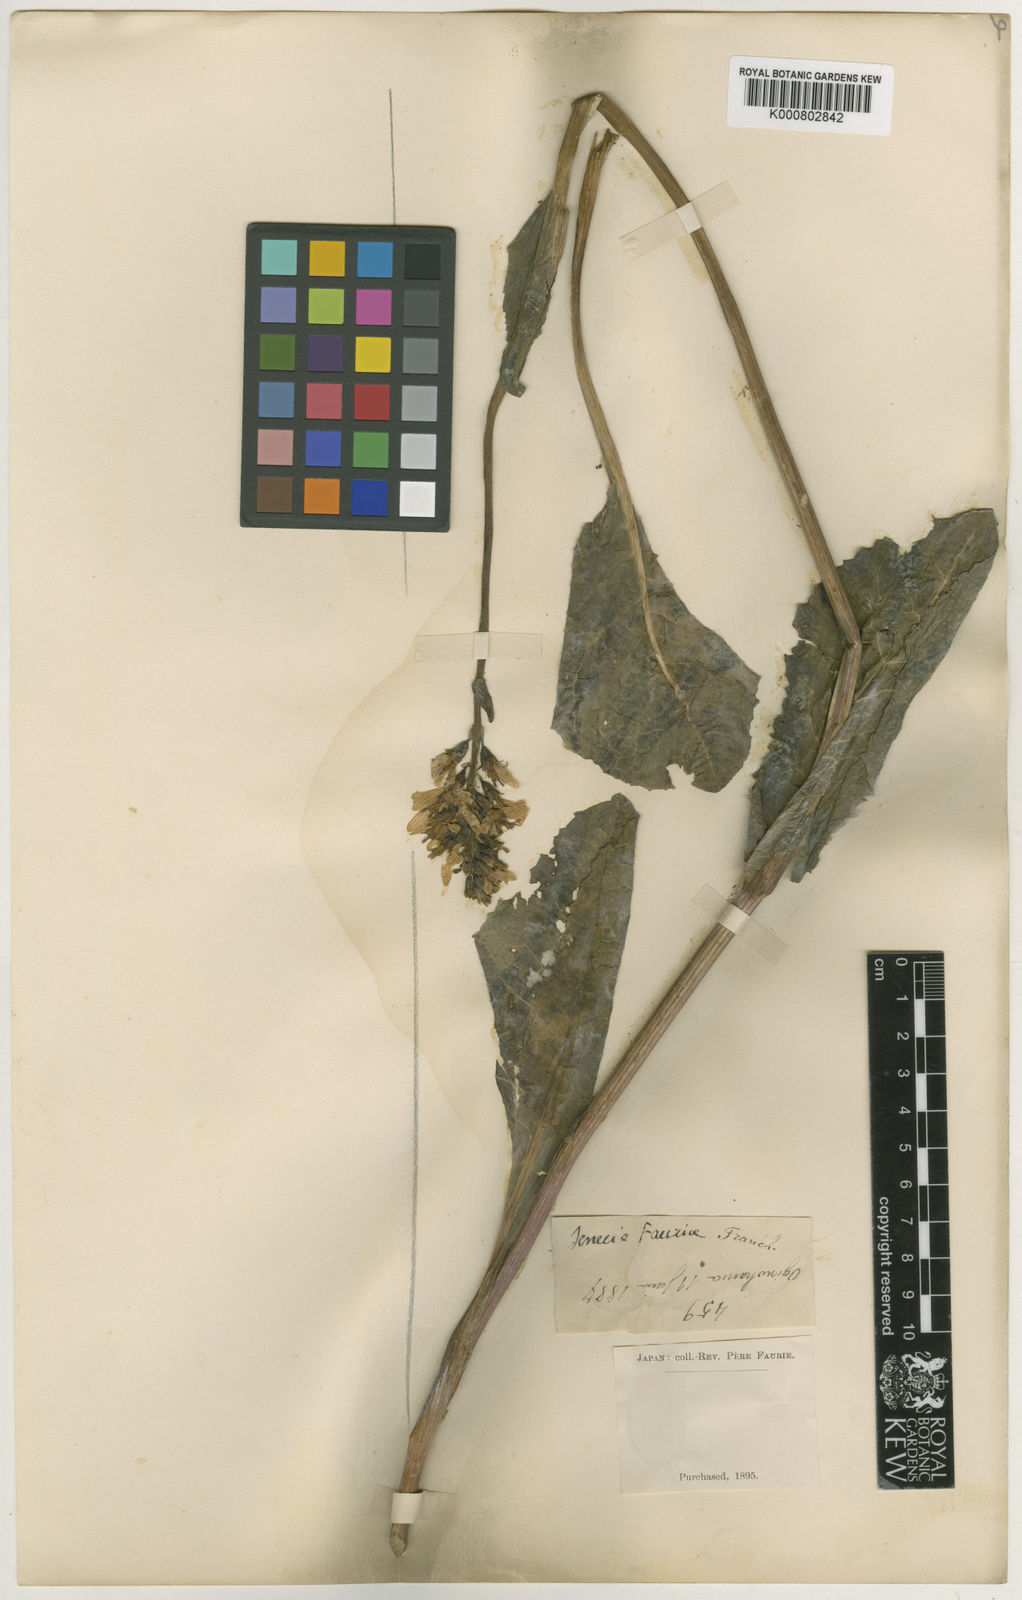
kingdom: Plantae
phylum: Tracheophyta
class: Magnoliopsida
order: Asterales
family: Asteraceae
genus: Ligularia
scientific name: Ligularia fauriei
